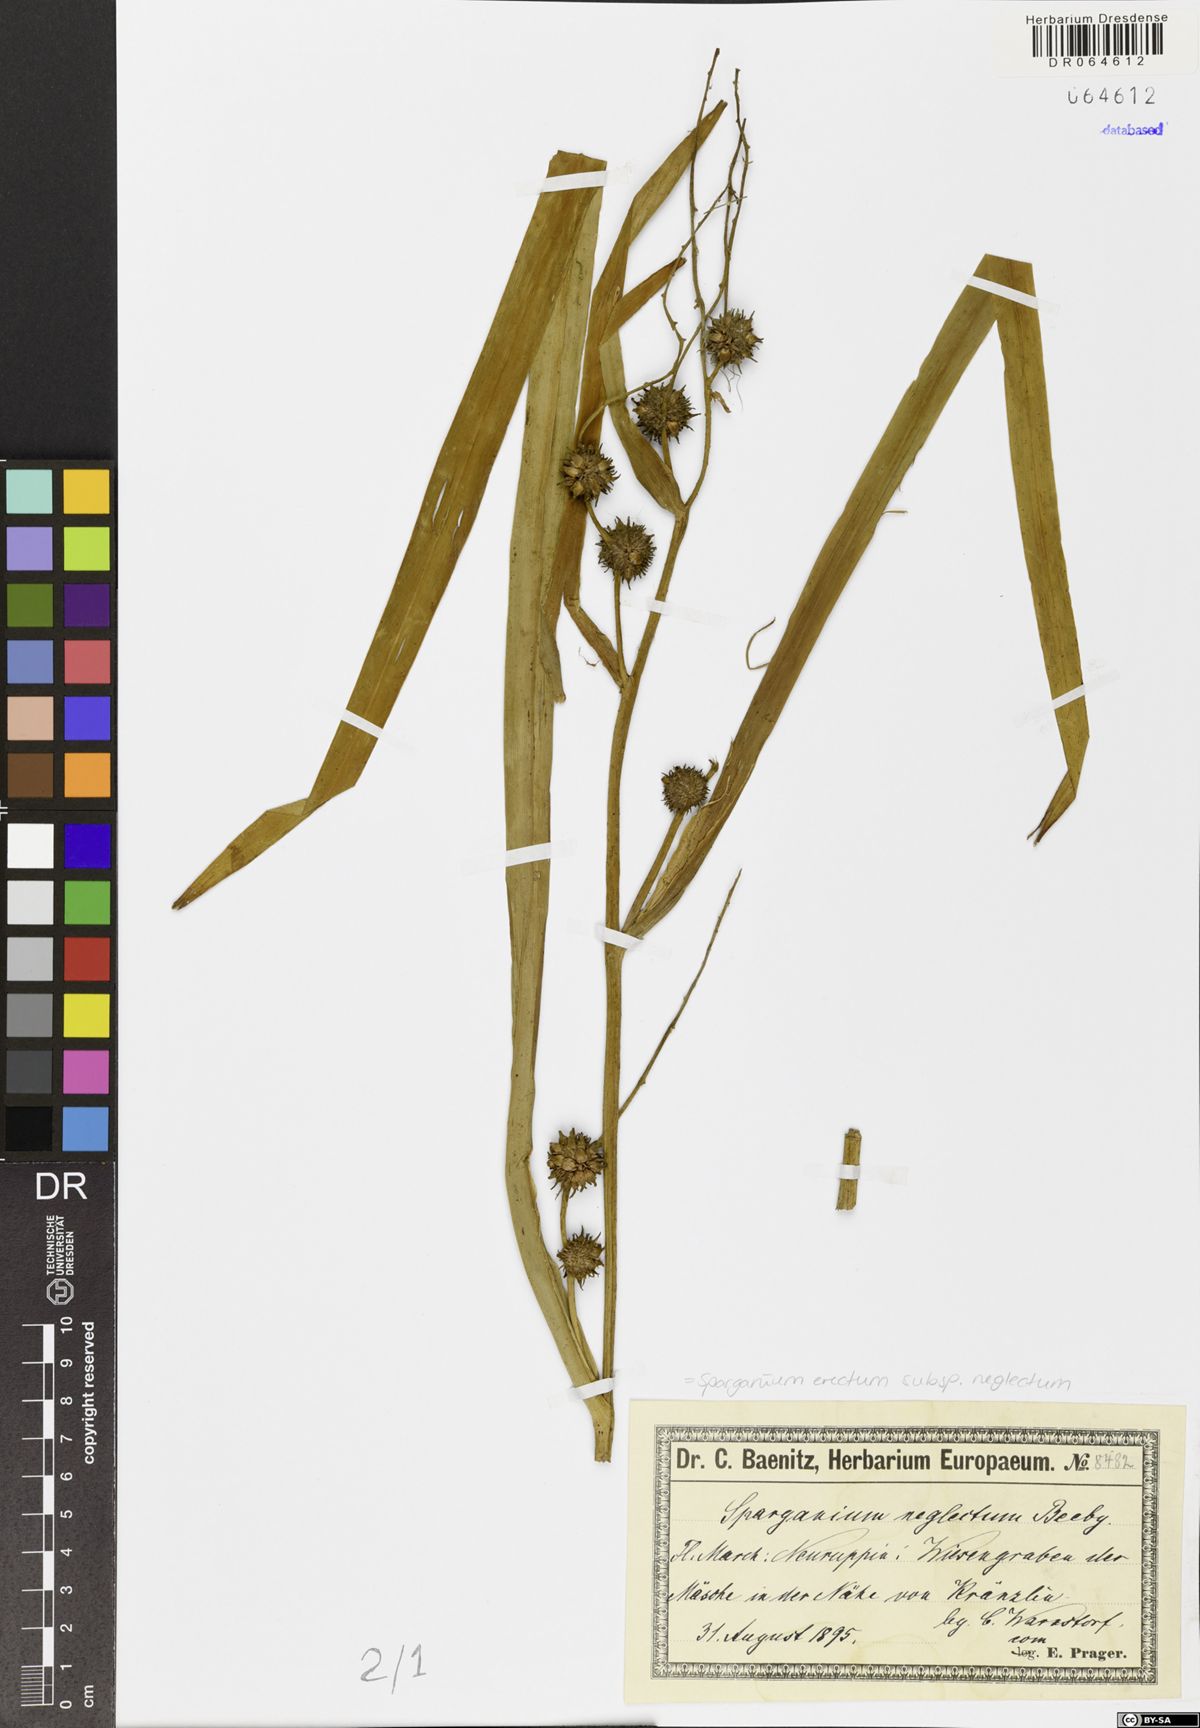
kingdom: Plantae
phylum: Tracheophyta
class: Liliopsida
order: Poales
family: Typhaceae
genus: Sparganium
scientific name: Sparganium erectum
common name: Branched bur-reed
